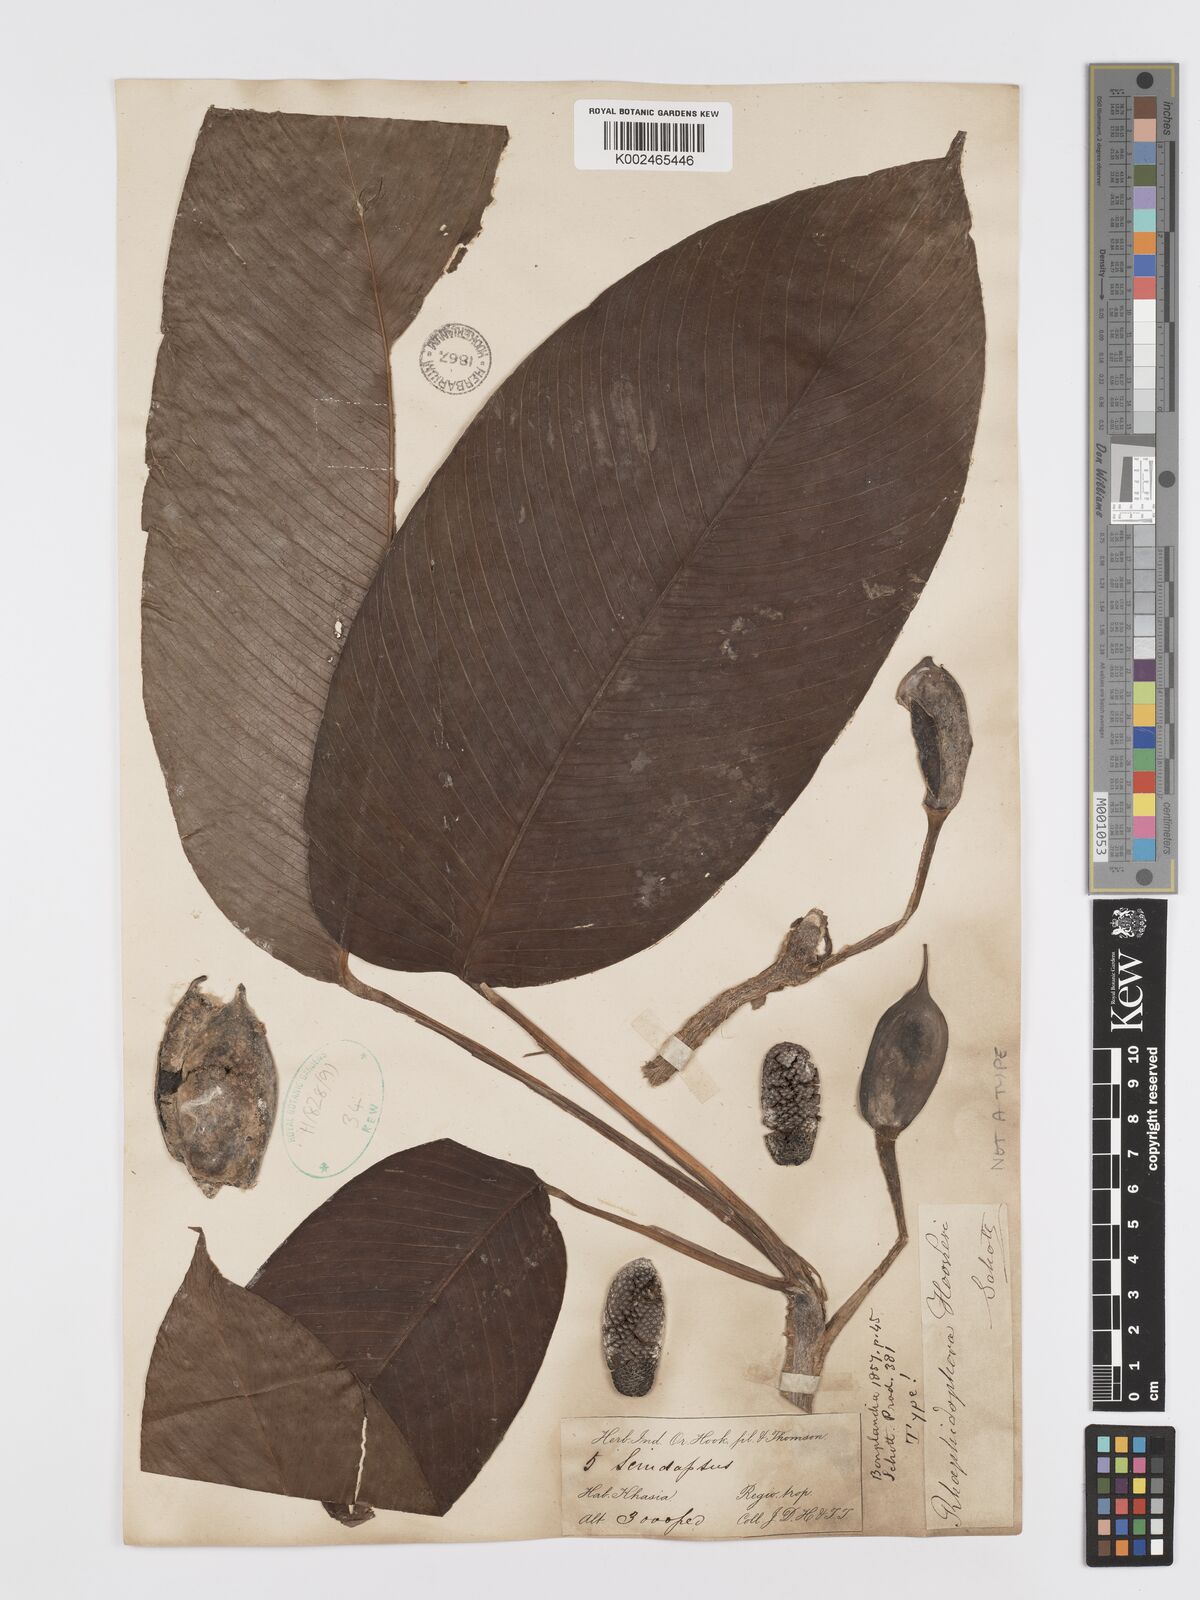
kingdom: Plantae
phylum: Tracheophyta
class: Liliopsida
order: Alismatales
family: Araceae
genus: Rhaphidophora
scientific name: Rhaphidophora hookeri
